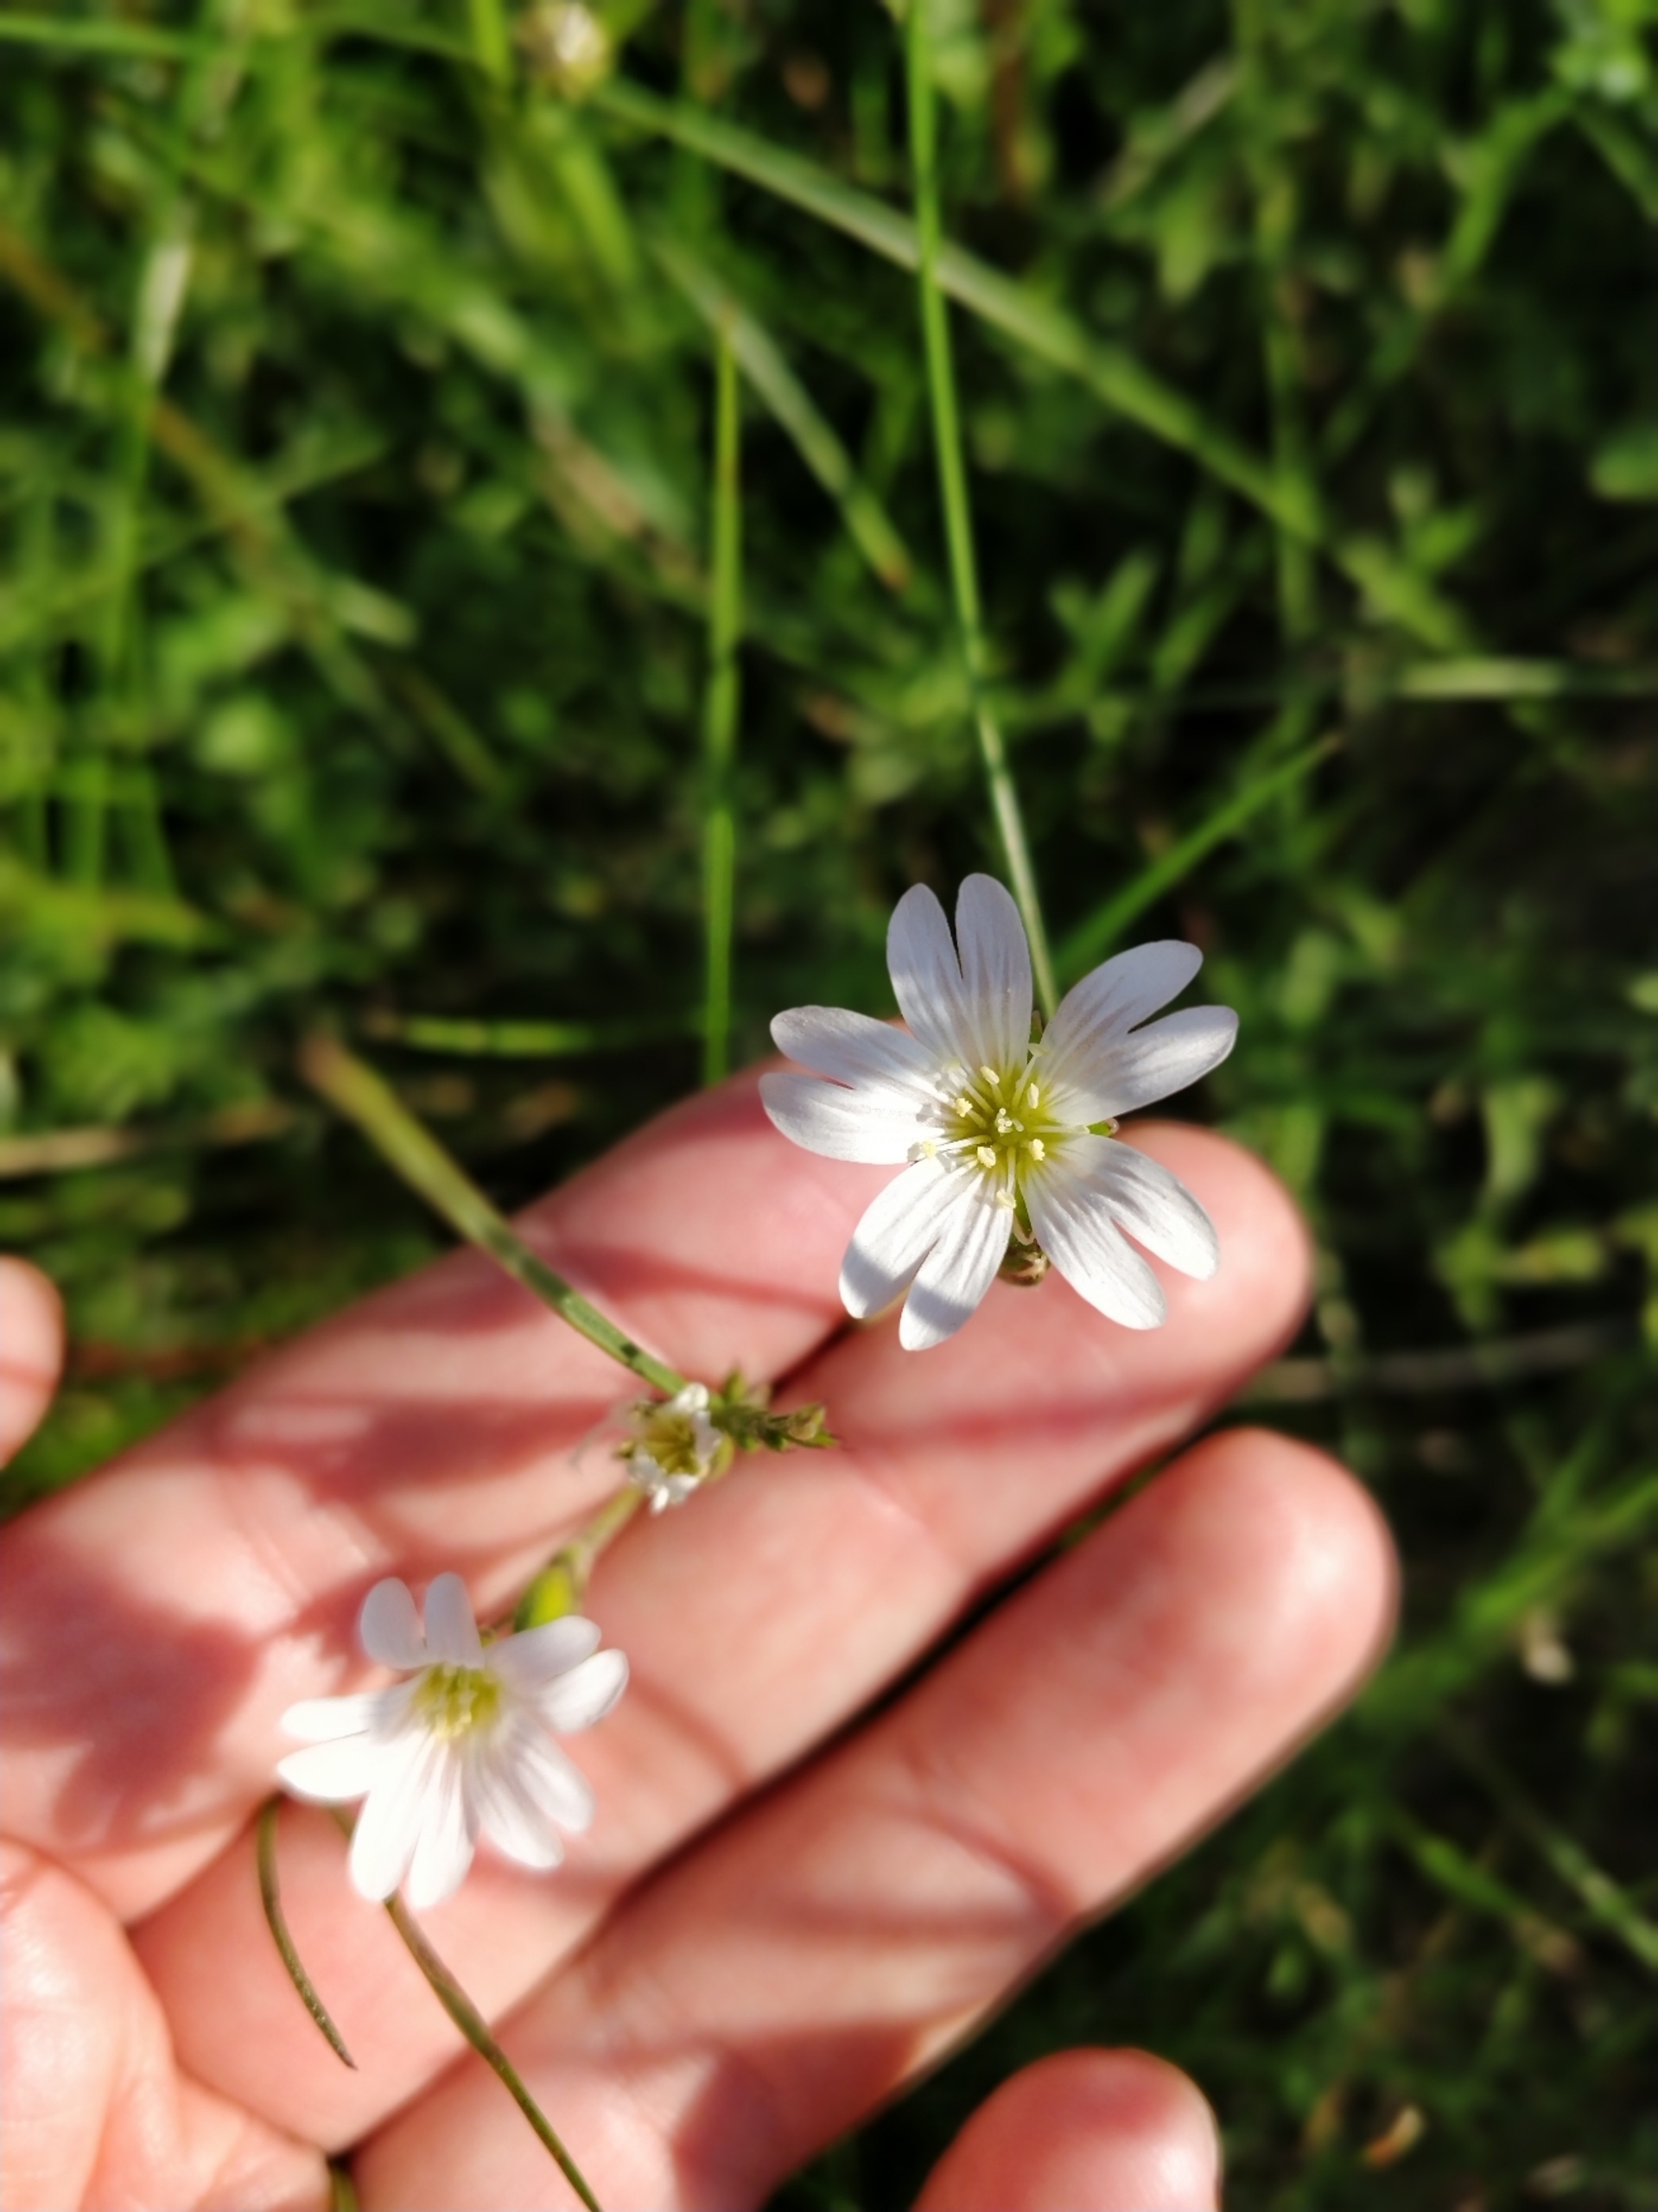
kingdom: Plantae
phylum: Tracheophyta
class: Magnoliopsida
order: Caryophyllales
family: Caryophyllaceae
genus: Cerastium
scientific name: Cerastium arvense
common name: Storblomstret hønsetarm
